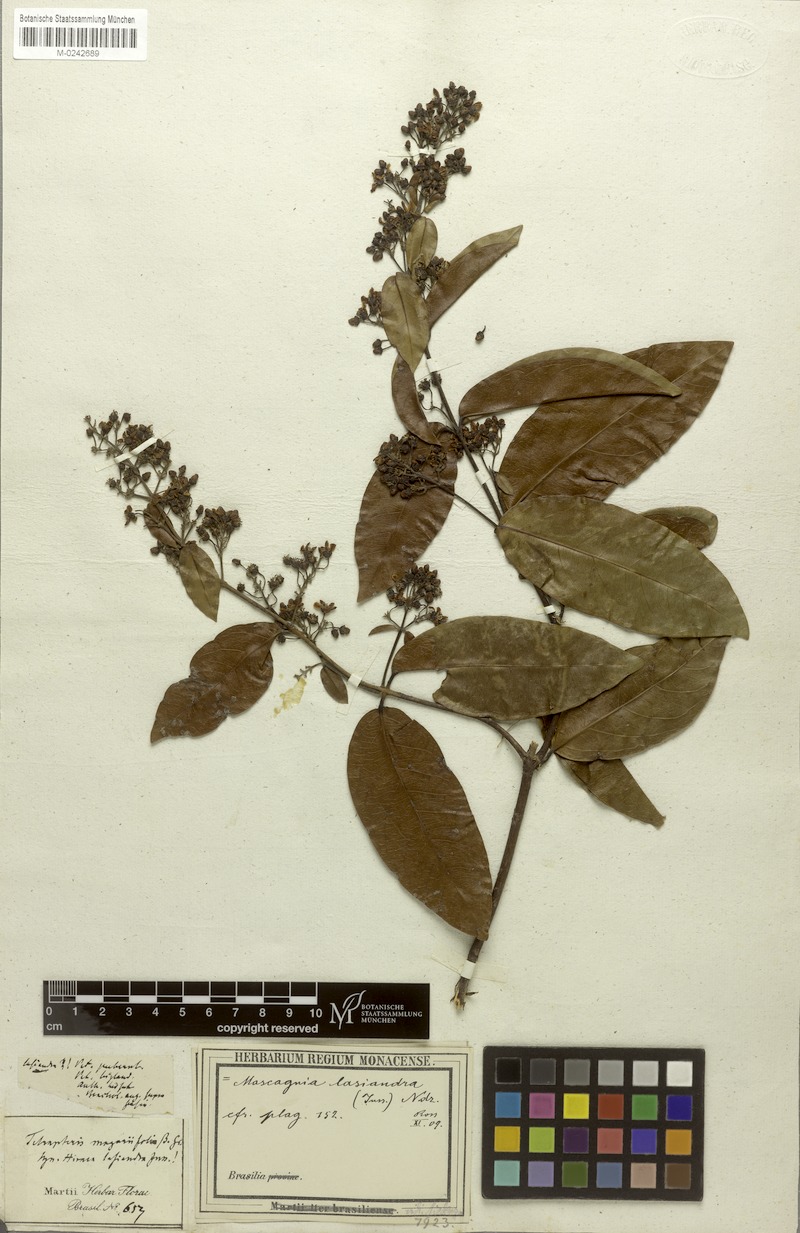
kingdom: Plantae
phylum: Tracheophyta
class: Magnoliopsida
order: Malpighiales
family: Malpighiaceae
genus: Niedenzuella
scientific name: Niedenzuella lasiandra
